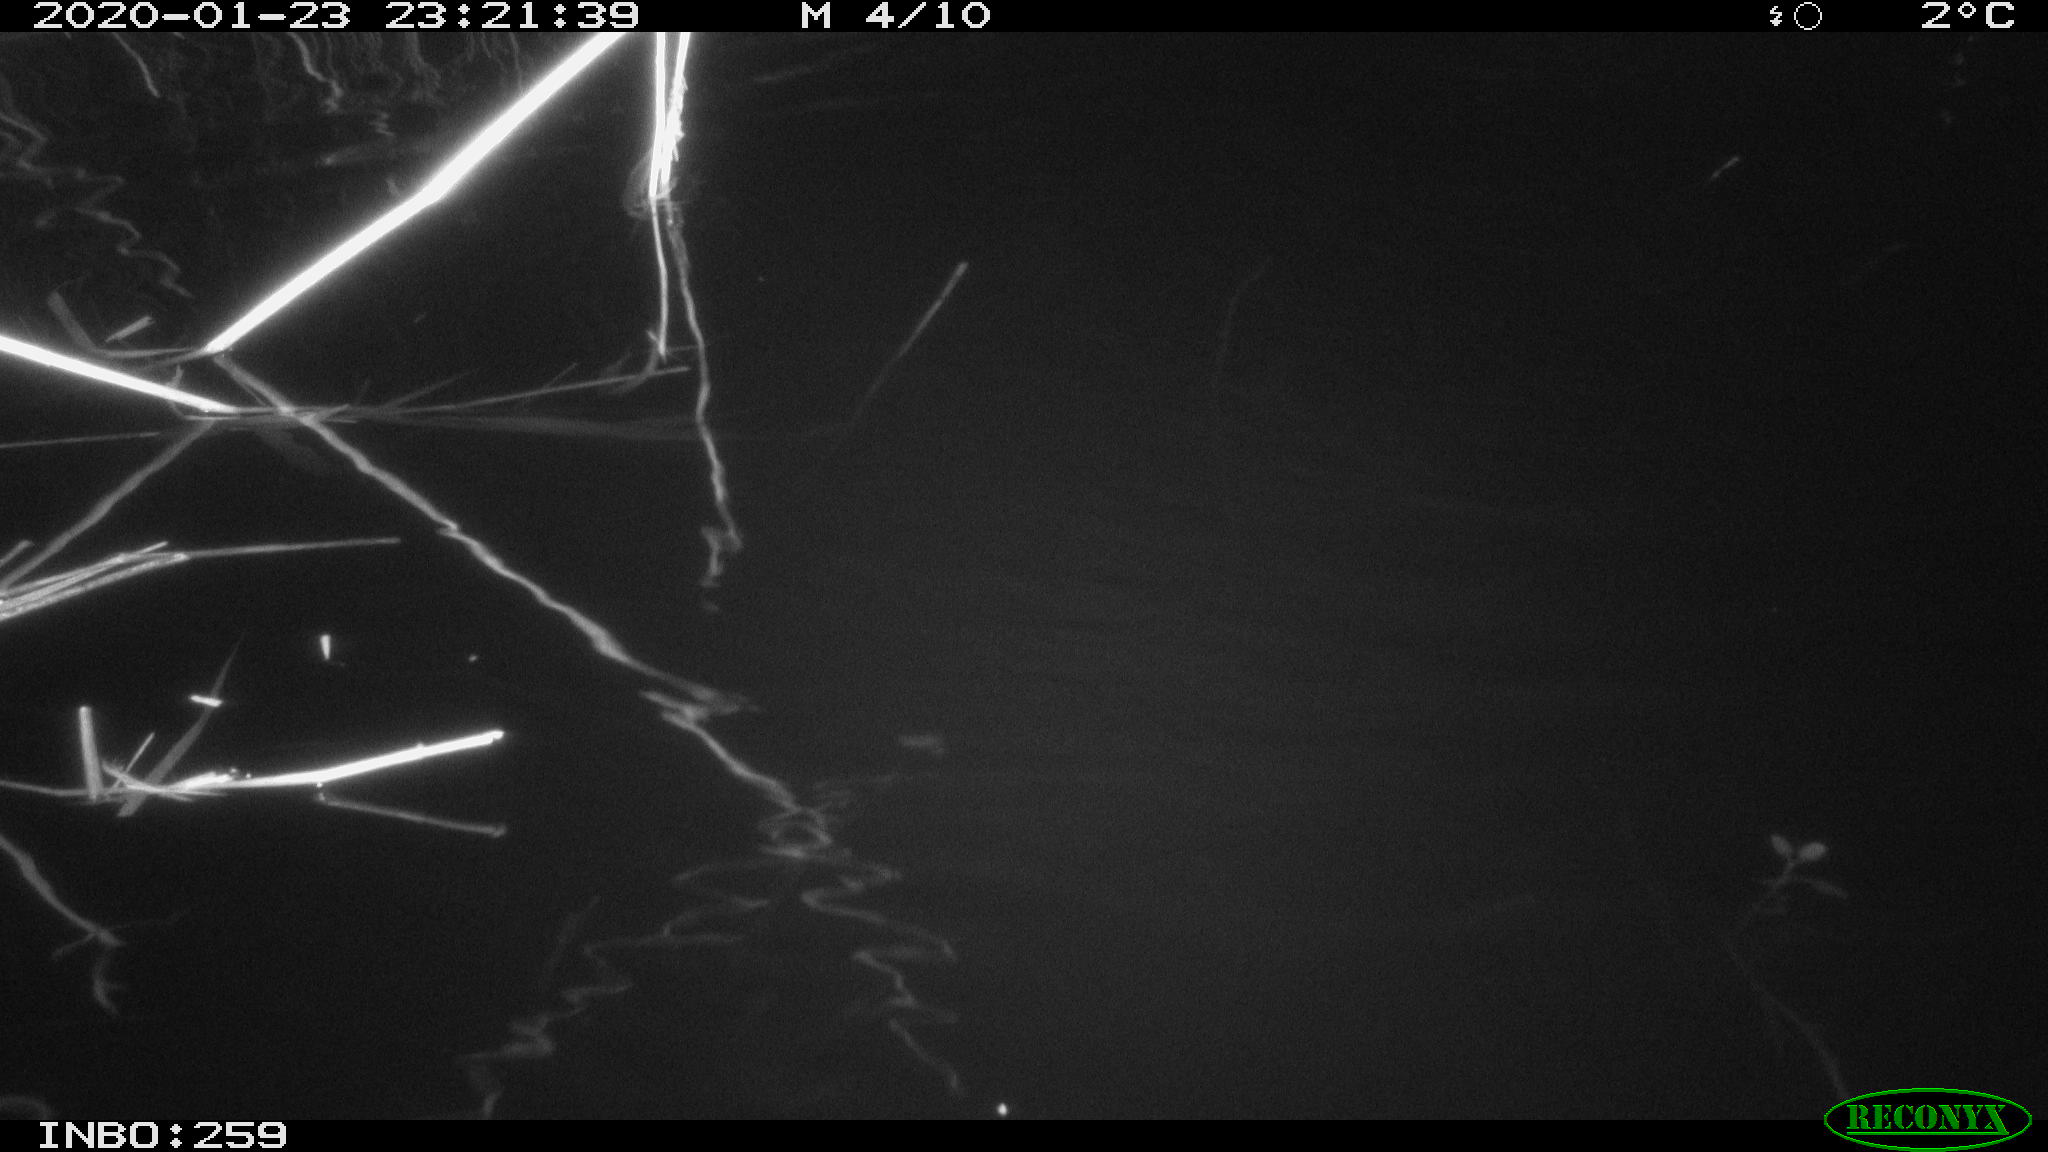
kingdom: Animalia
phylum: Chordata
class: Mammalia
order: Rodentia
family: Cricetidae
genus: Ondatra
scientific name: Ondatra zibethicus
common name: Muskrat
